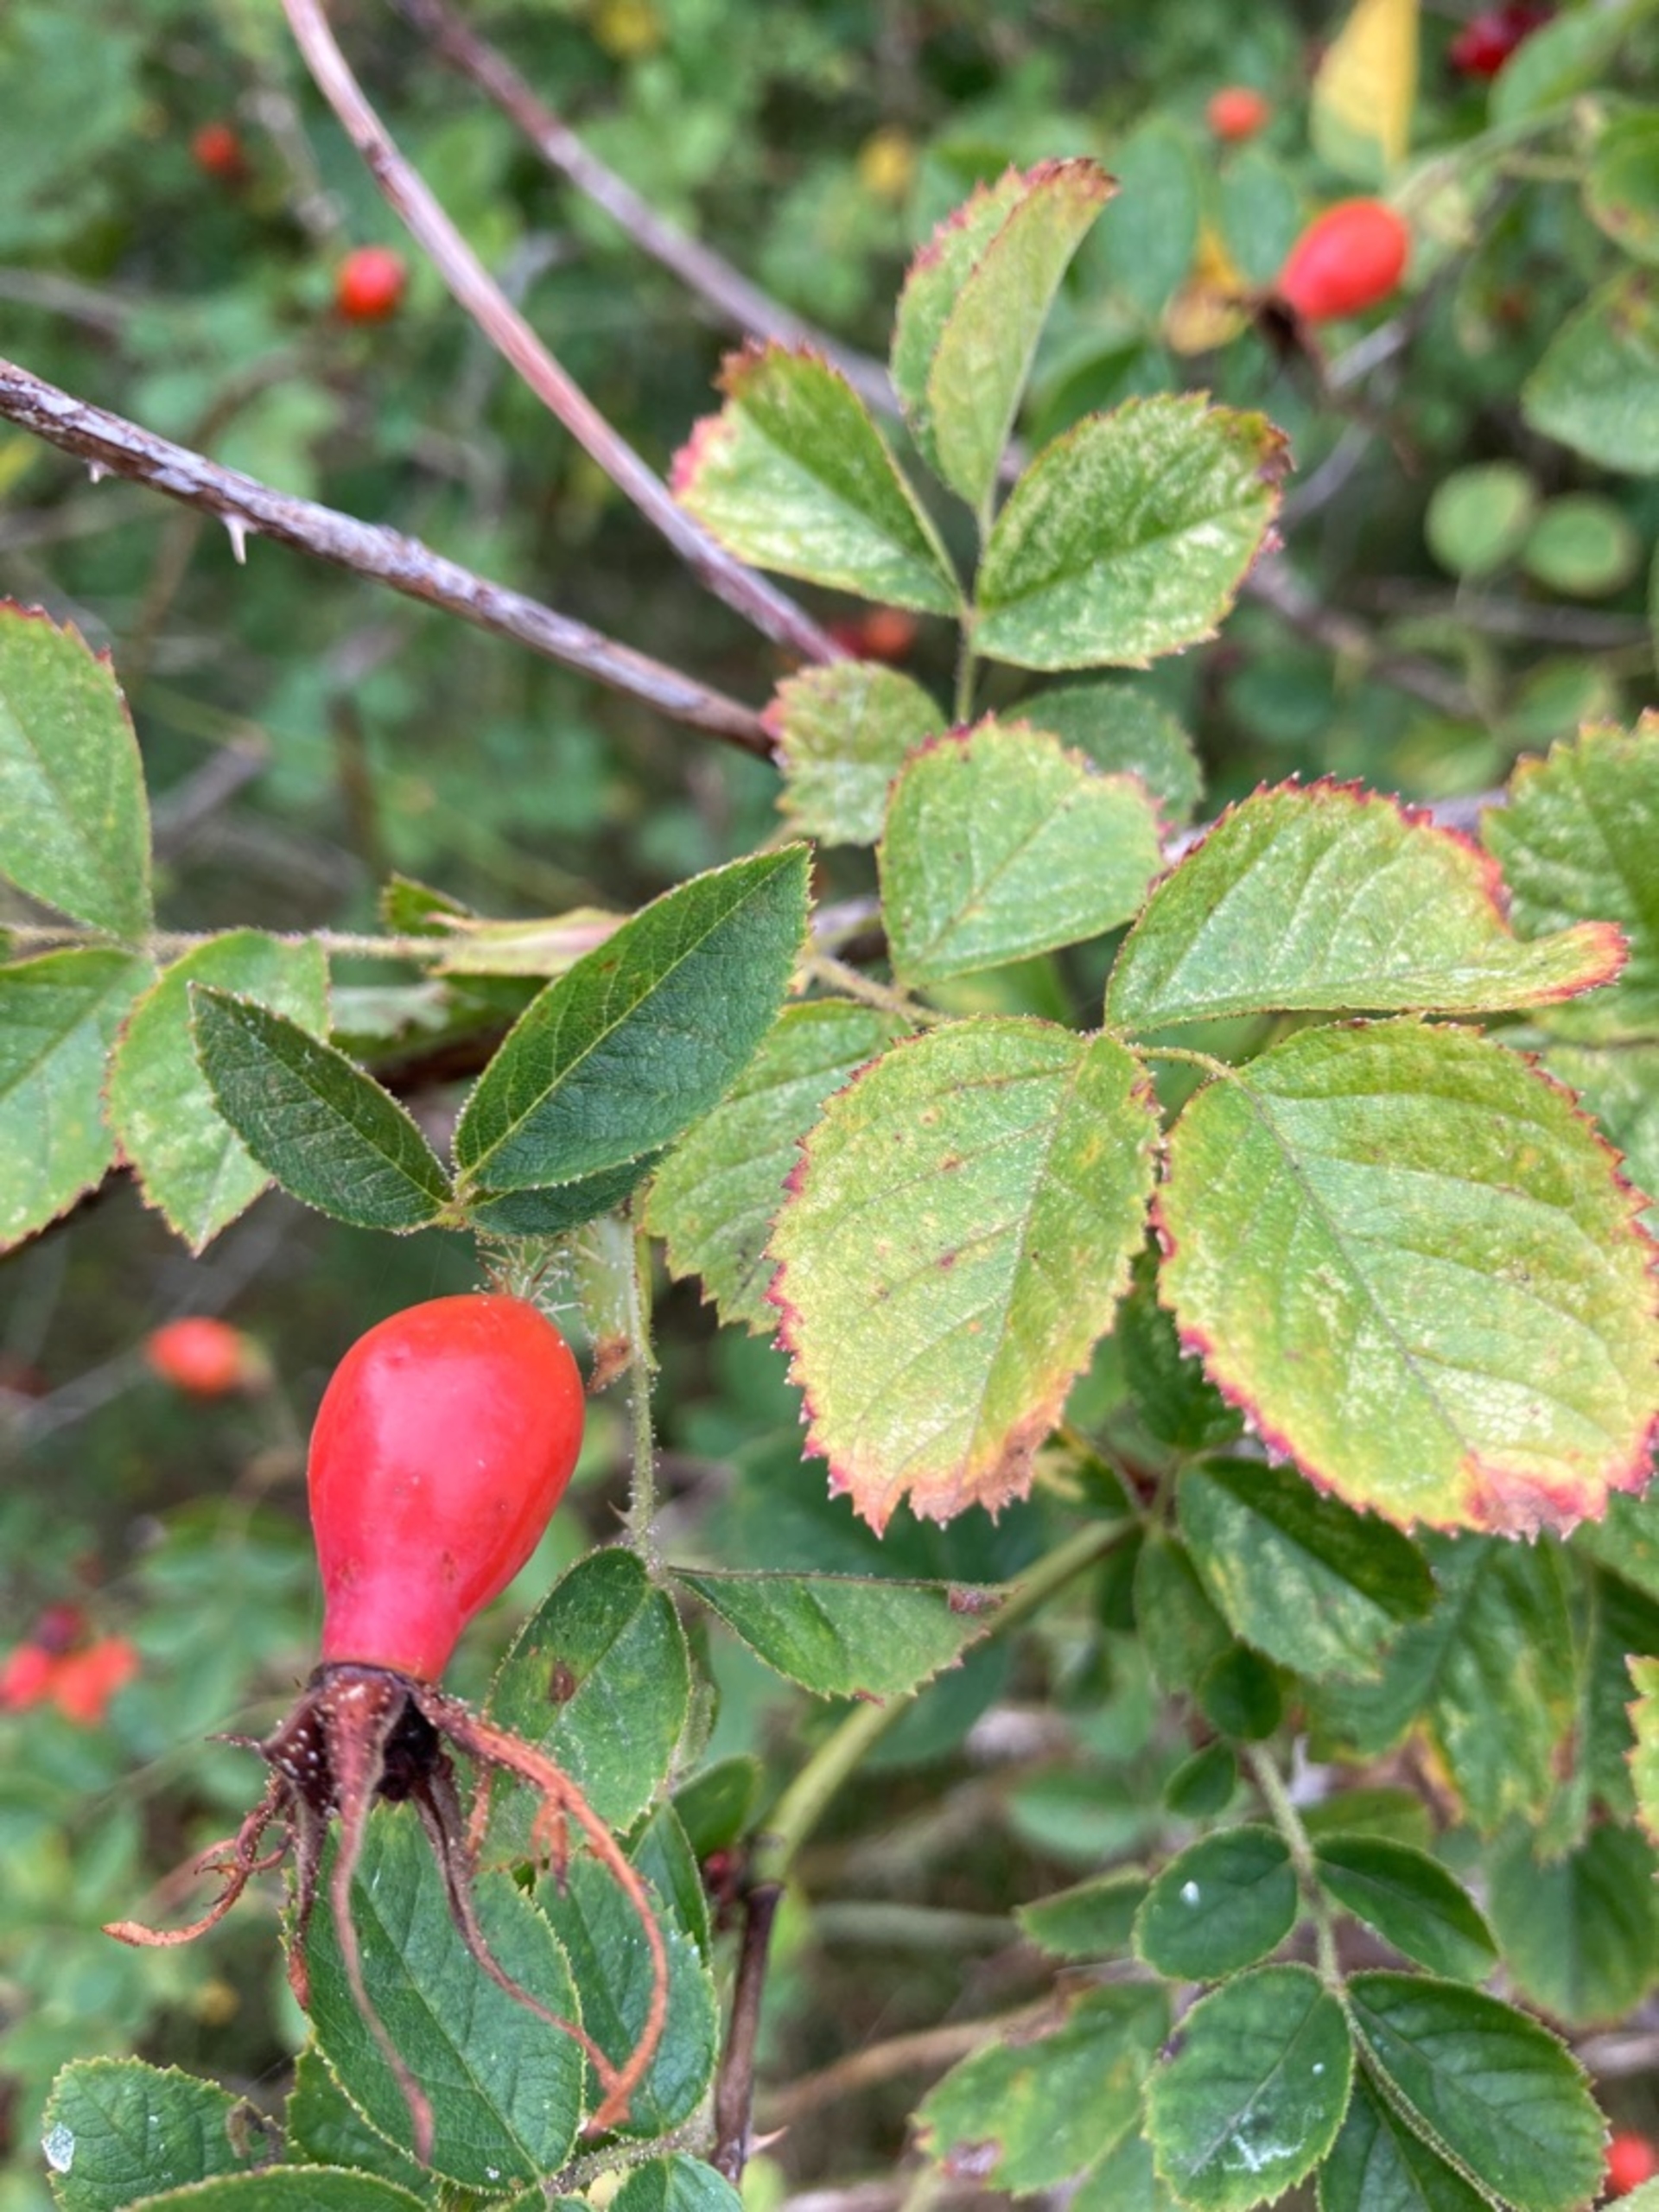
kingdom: Plantae
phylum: Tracheophyta
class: Magnoliopsida
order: Rosales
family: Rosaceae
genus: Rosa
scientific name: Rosa rubiginosa
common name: Æble-rose
